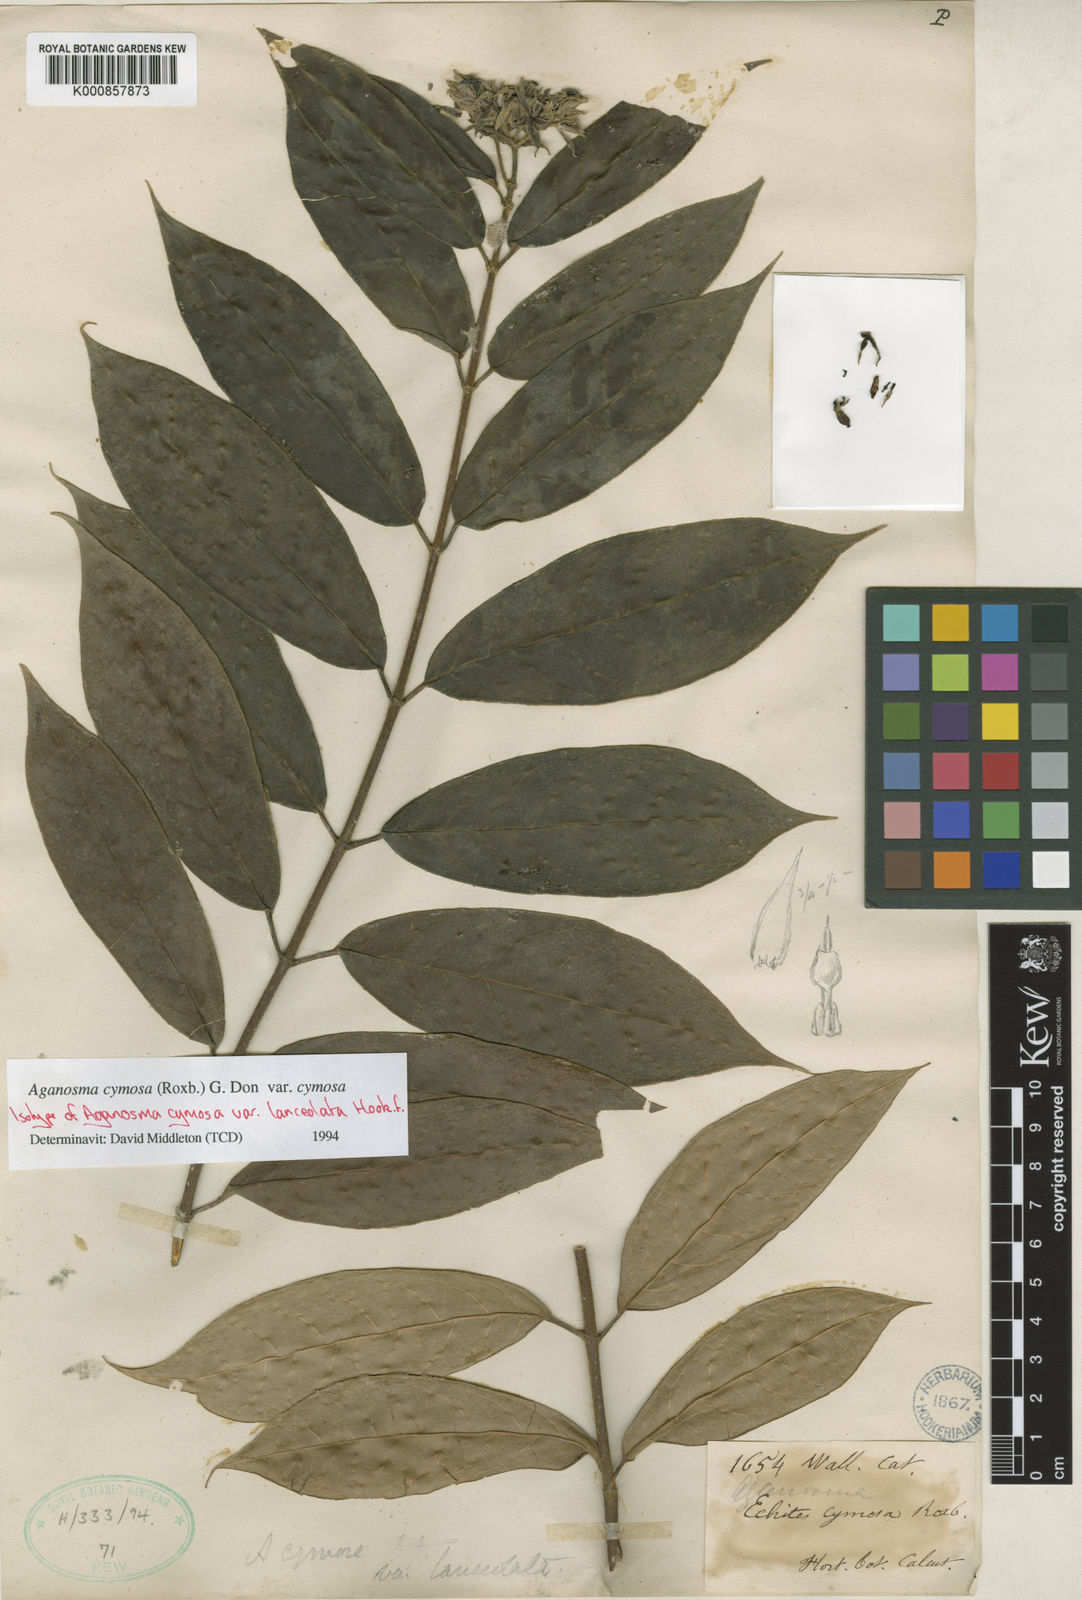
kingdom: Plantae
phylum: Tracheophyta
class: Magnoliopsida
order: Gentianales
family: Apocynaceae
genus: Aganosma
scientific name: Aganosma cymosa
